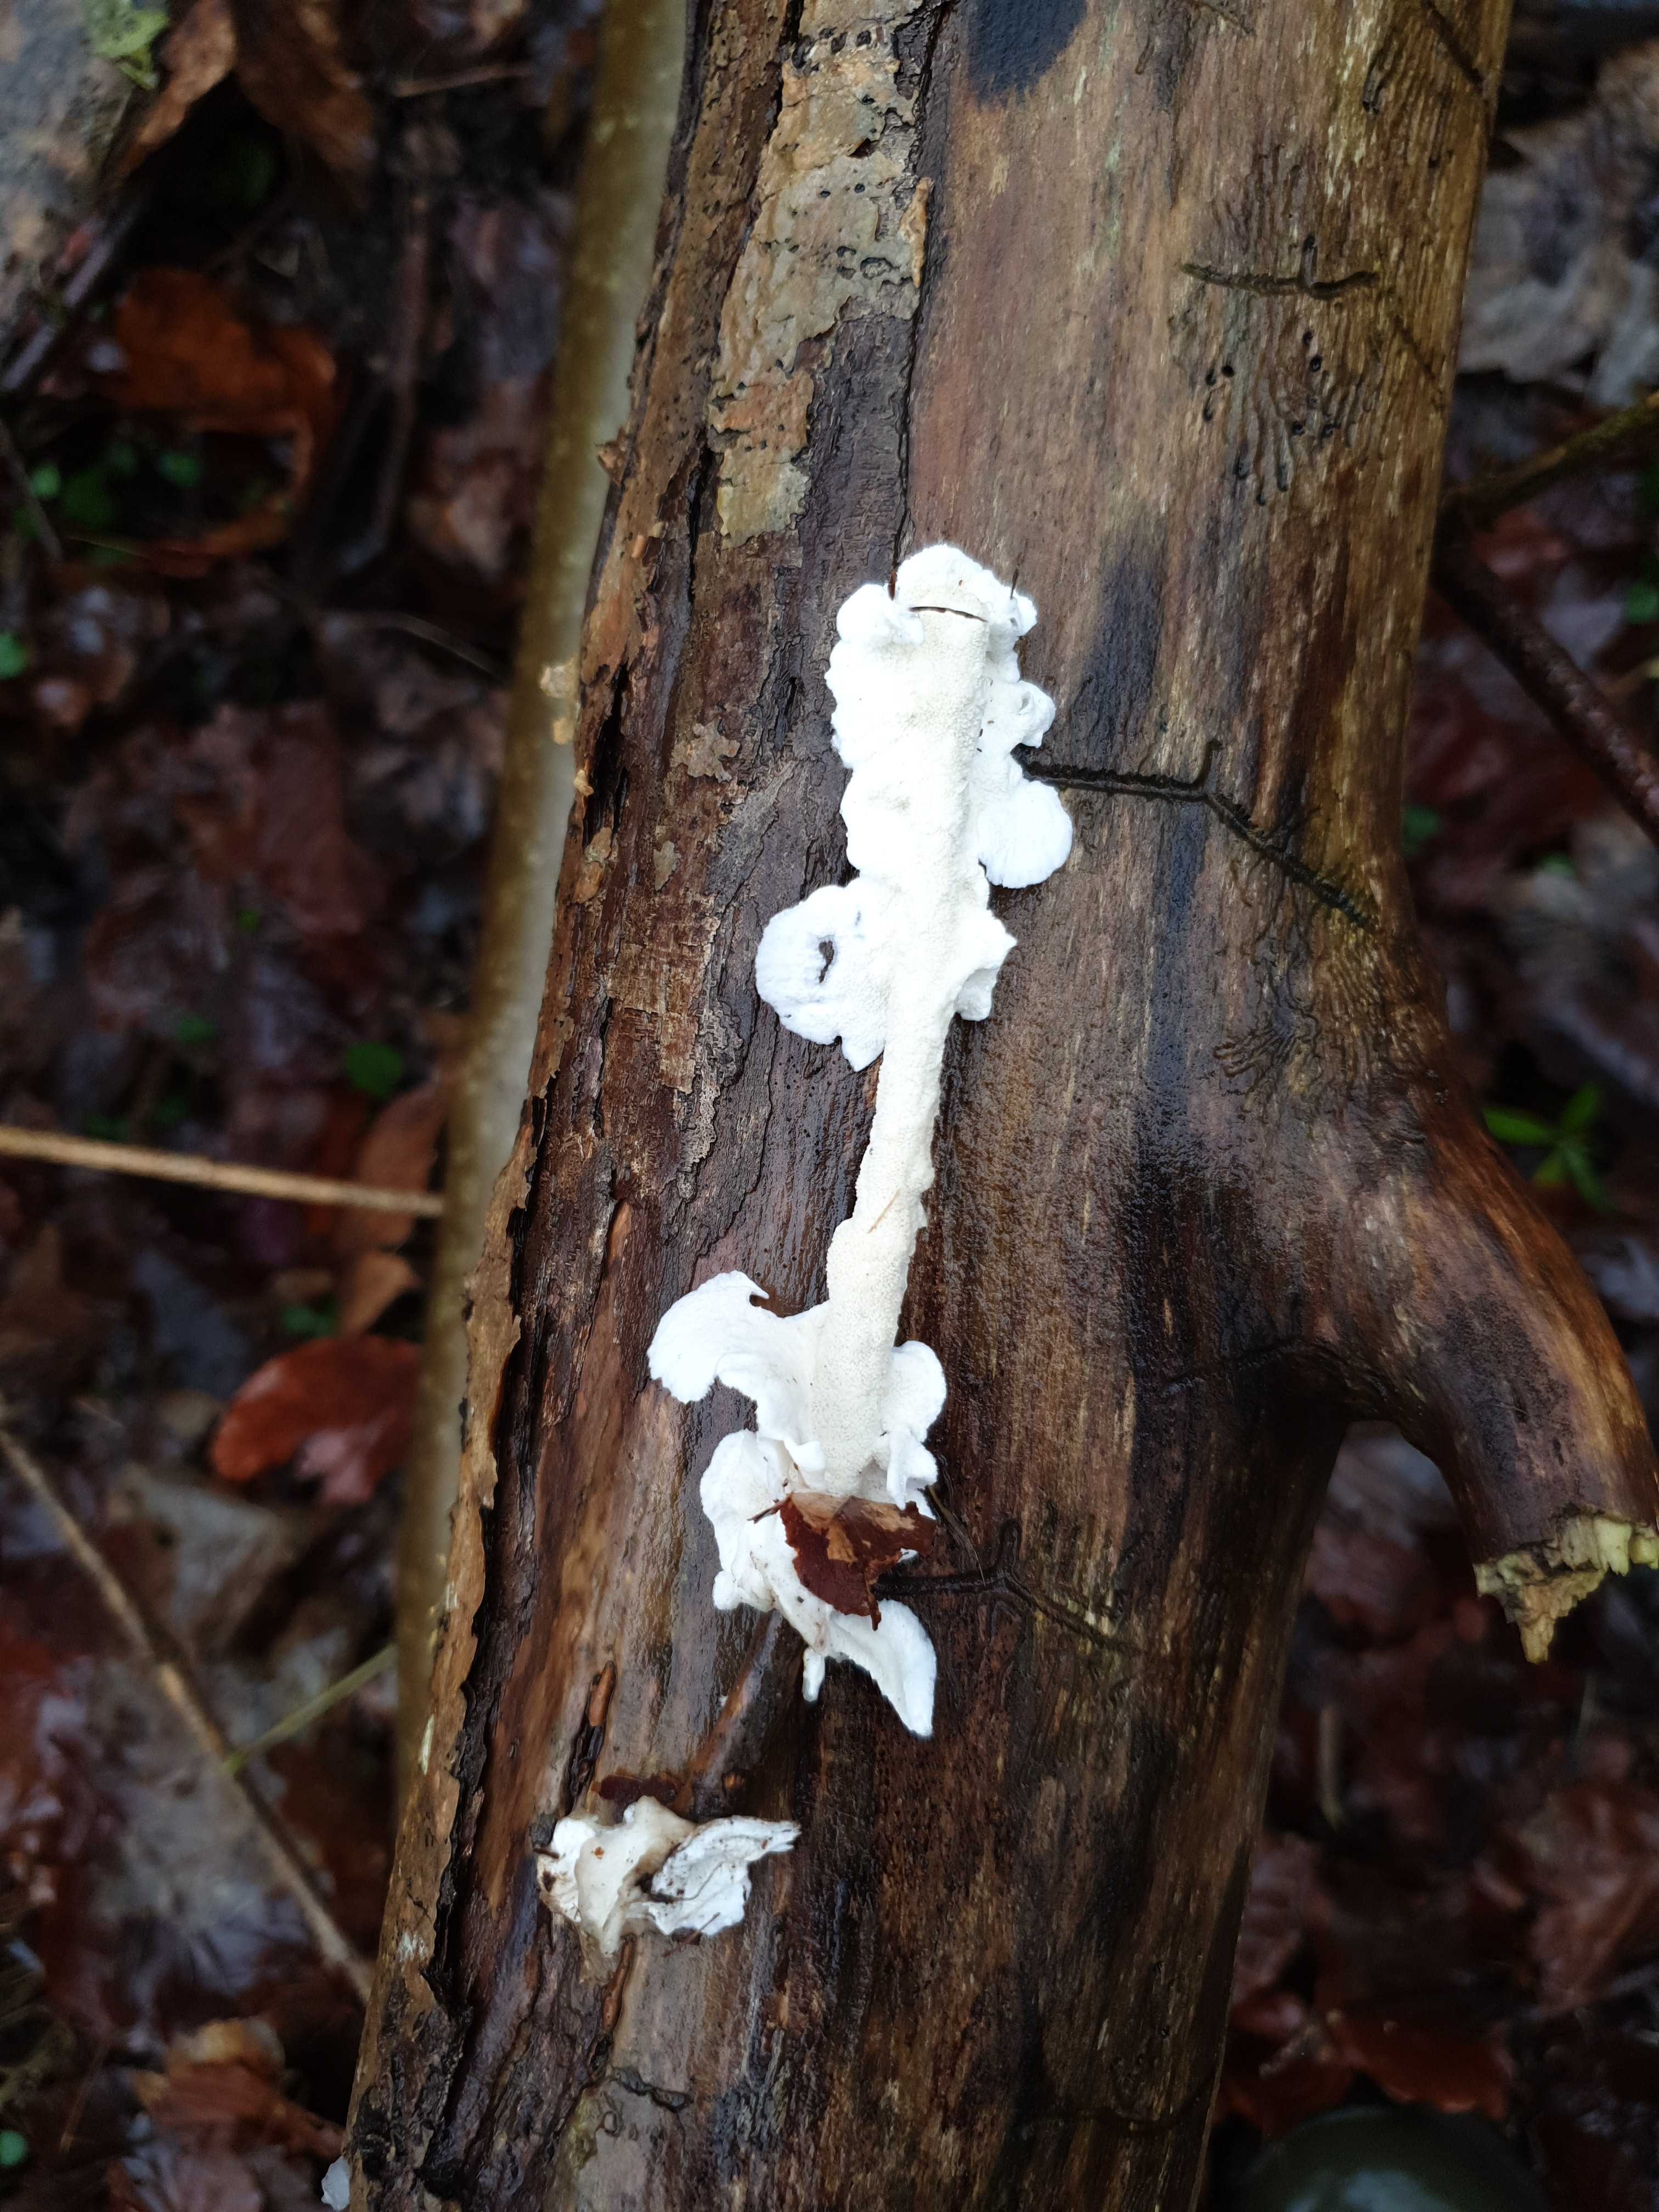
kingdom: Fungi
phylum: Basidiomycota
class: Agaricomycetes
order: Polyporales
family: Irpicaceae
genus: Byssomerulius
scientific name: Byssomerulius corium
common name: læder-åresvamp
